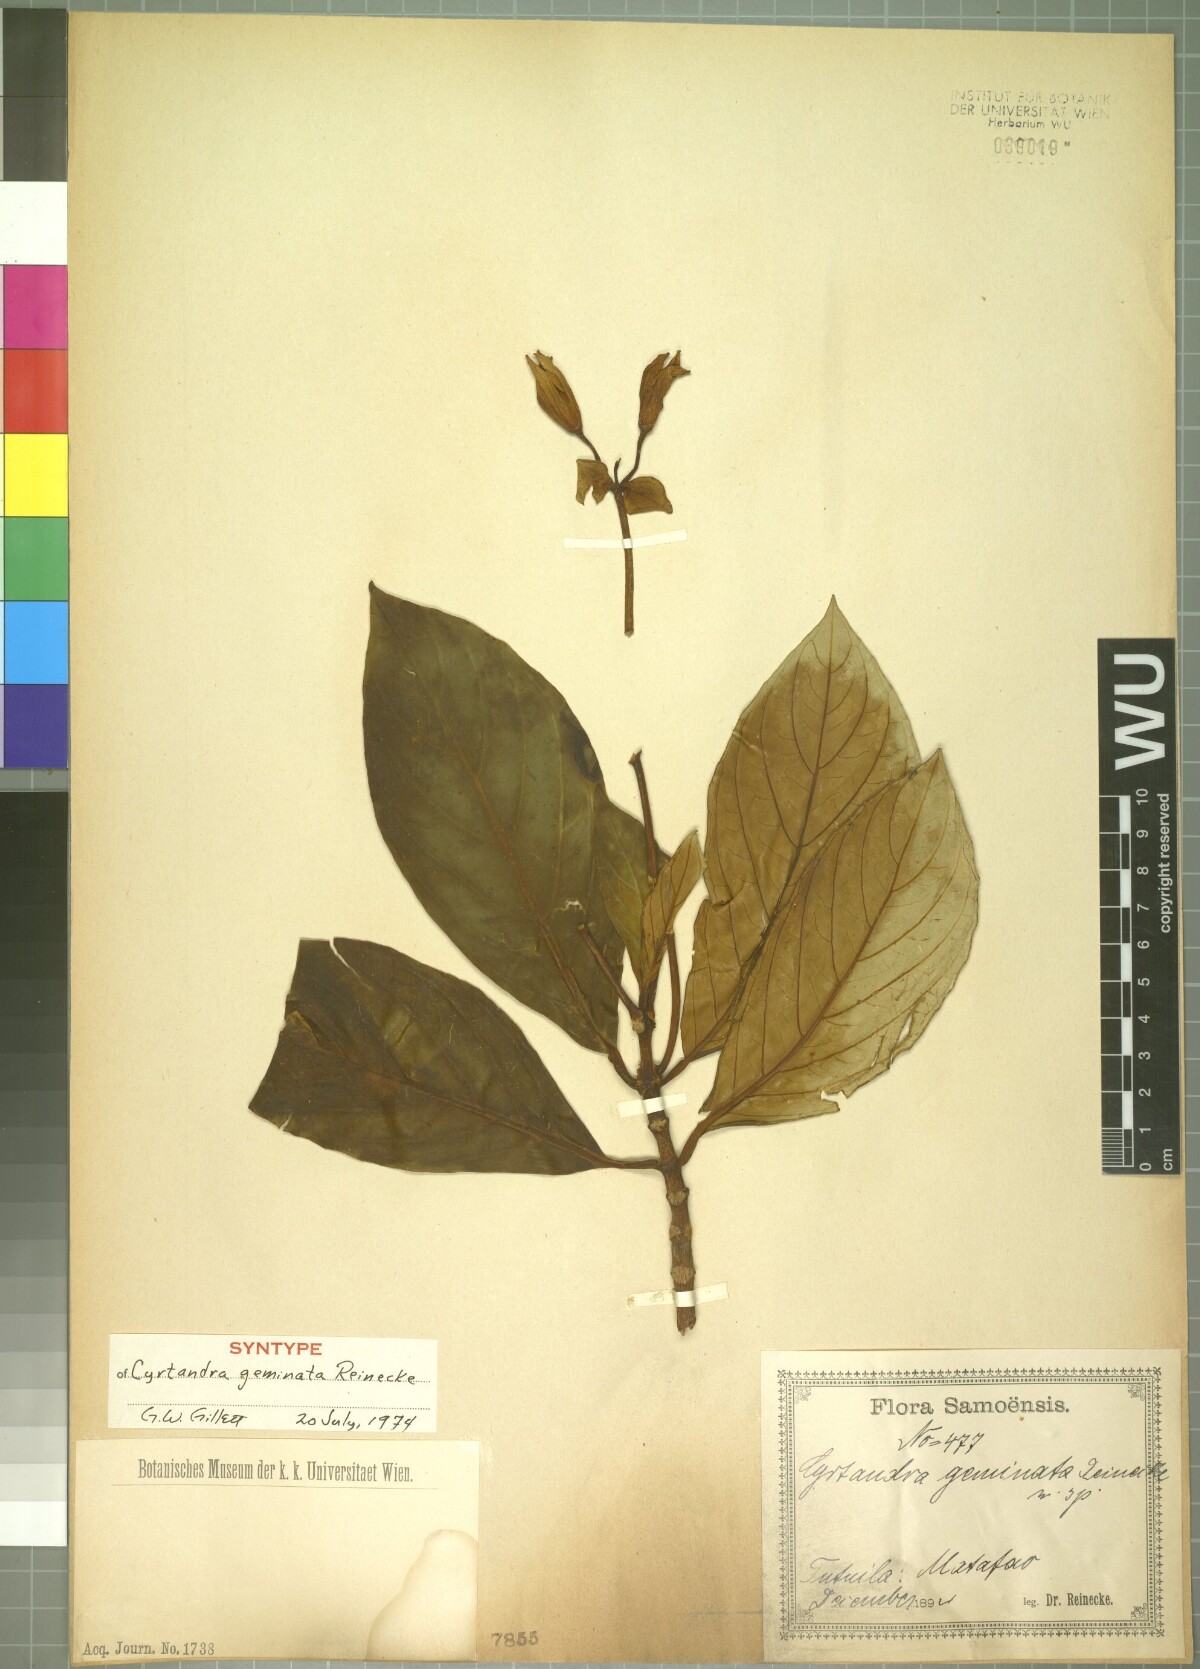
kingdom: Plantae
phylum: Tracheophyta
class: Magnoliopsida
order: Lamiales
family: Gesneriaceae
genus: Cyrtandra
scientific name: Cyrtandra geminata
